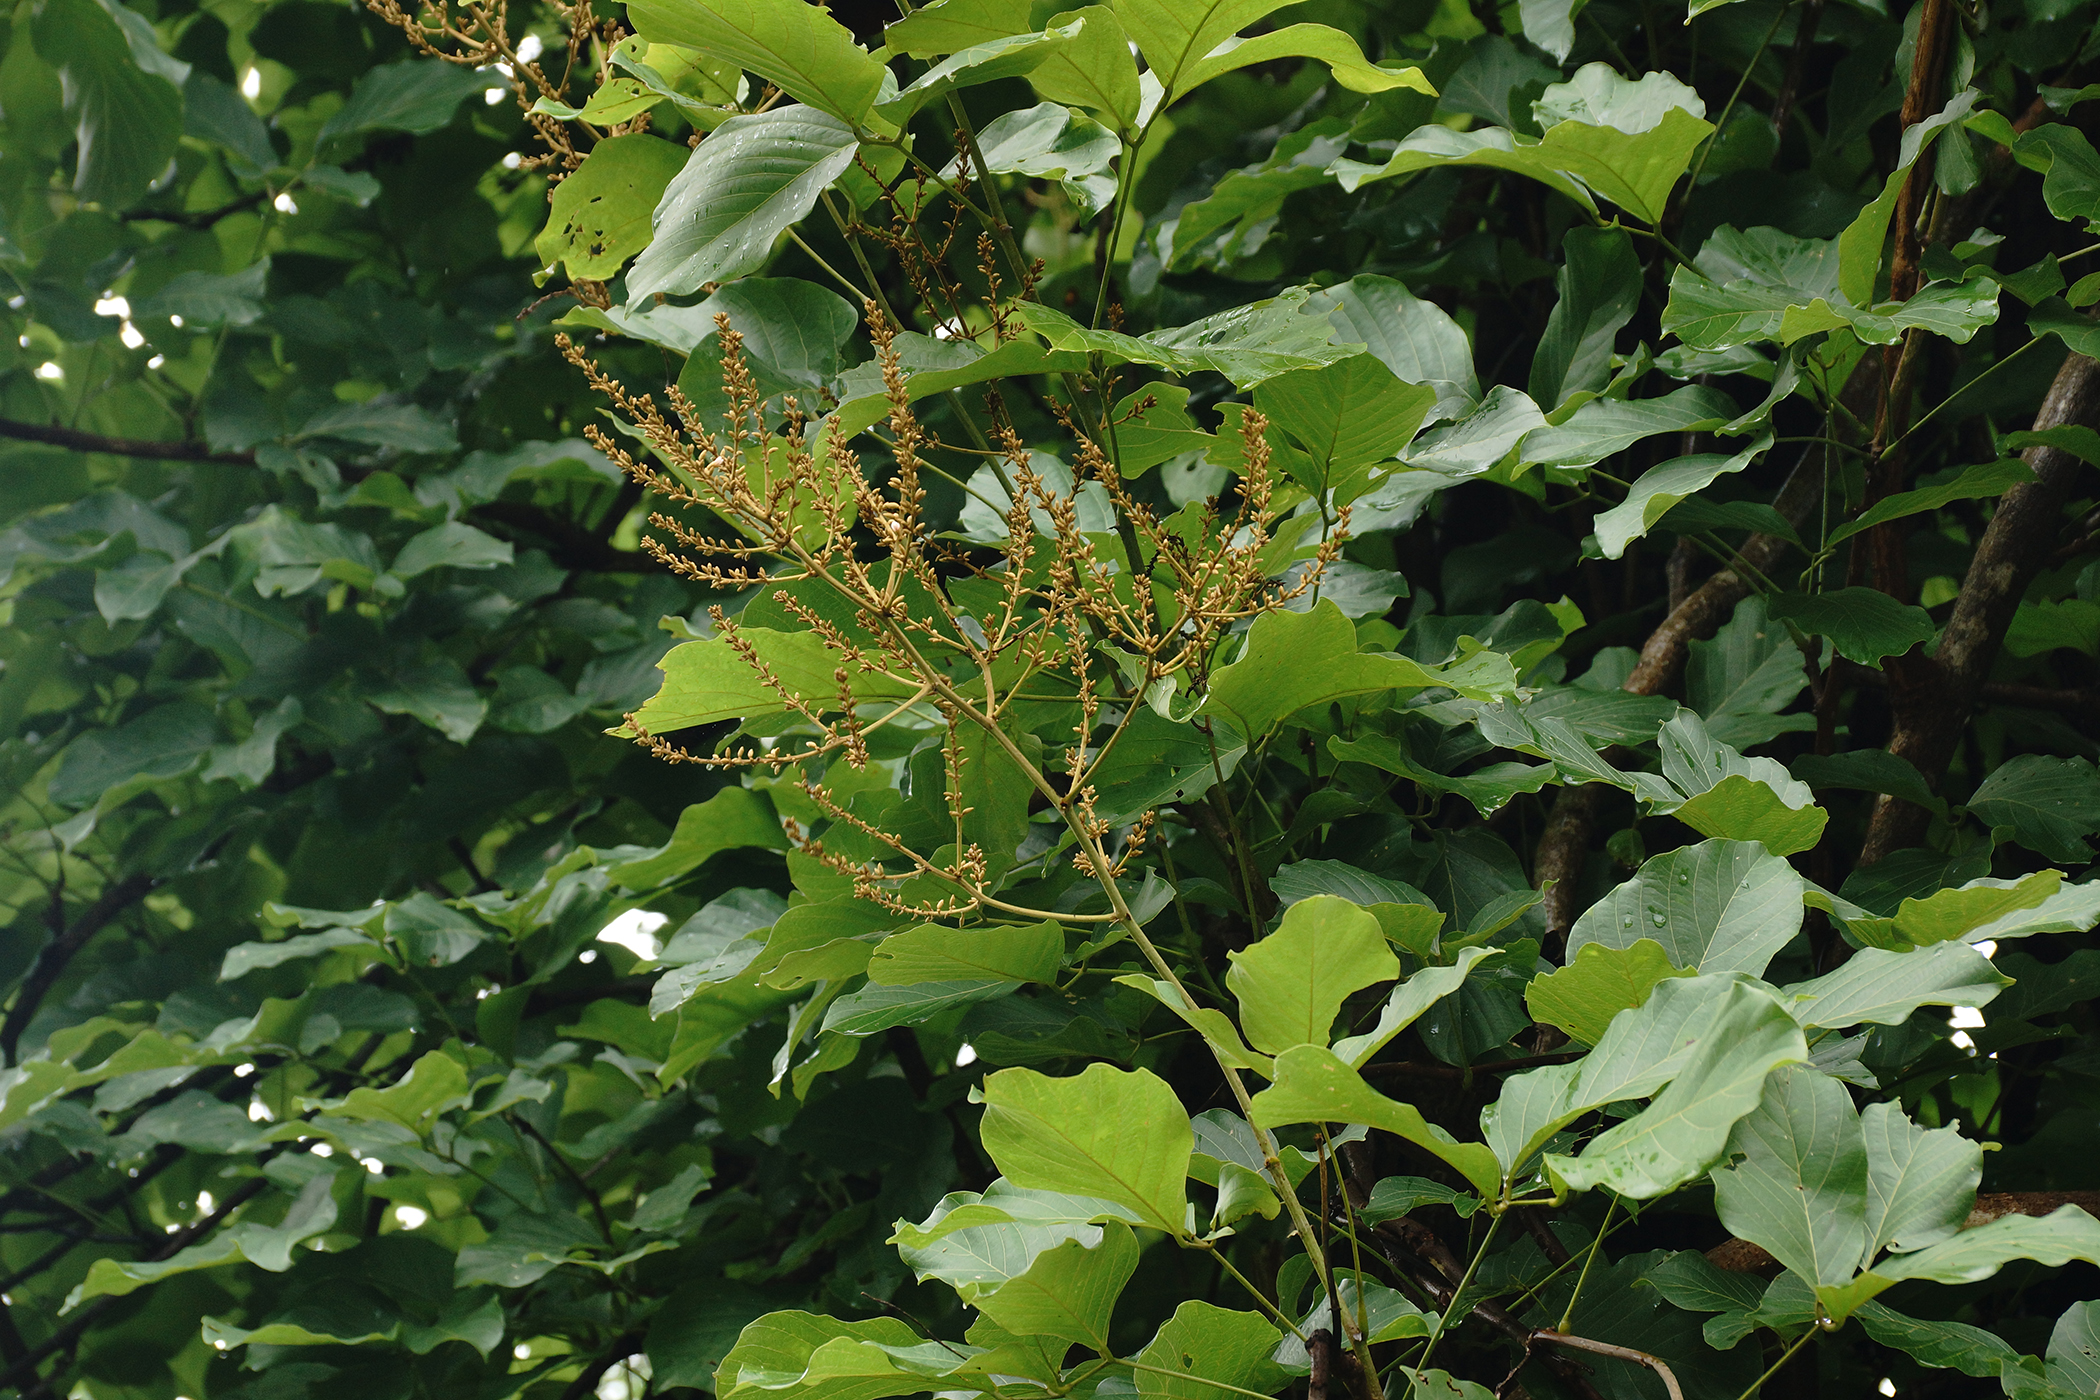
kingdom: Plantae
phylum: Tracheophyta
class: Magnoliopsida
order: Fabales
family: Fabaceae
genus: Spatholobus
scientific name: Spatholobus parviflorus
